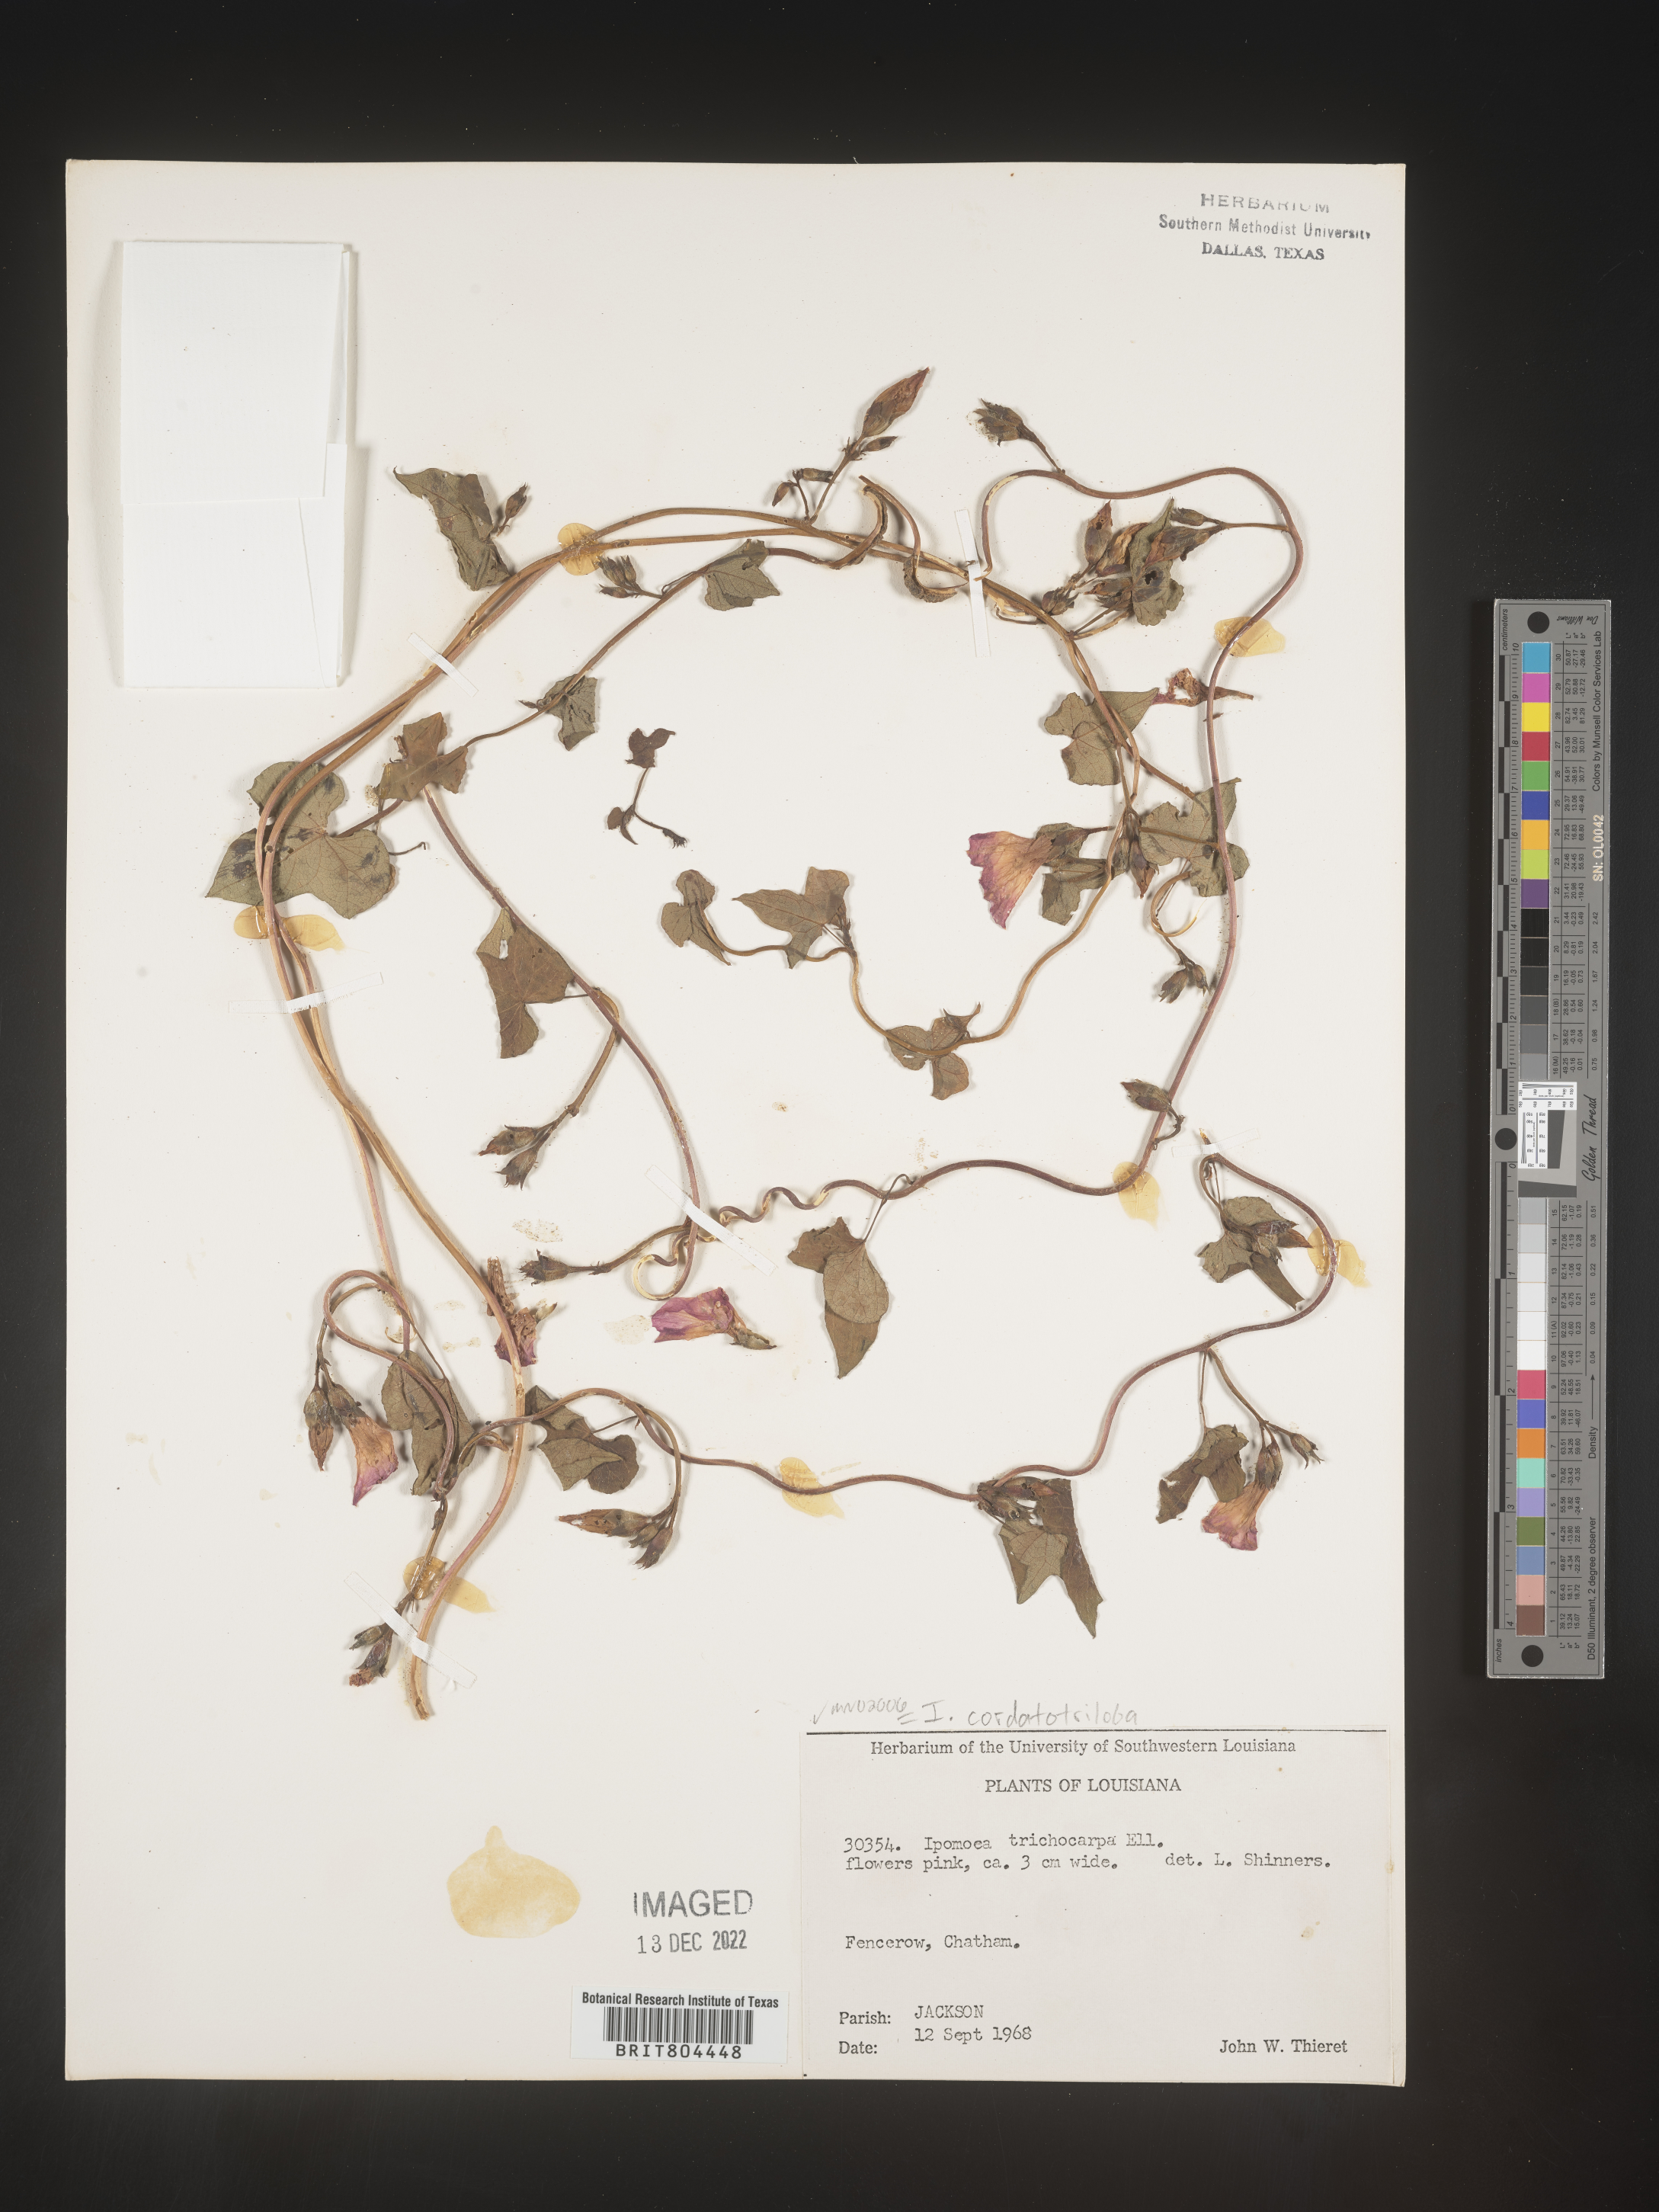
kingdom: Plantae
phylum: Tracheophyta
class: Magnoliopsida
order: Solanales
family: Convolvulaceae
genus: Ipomoea
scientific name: Ipomoea cordatotriloba
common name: Cotton morning glory
